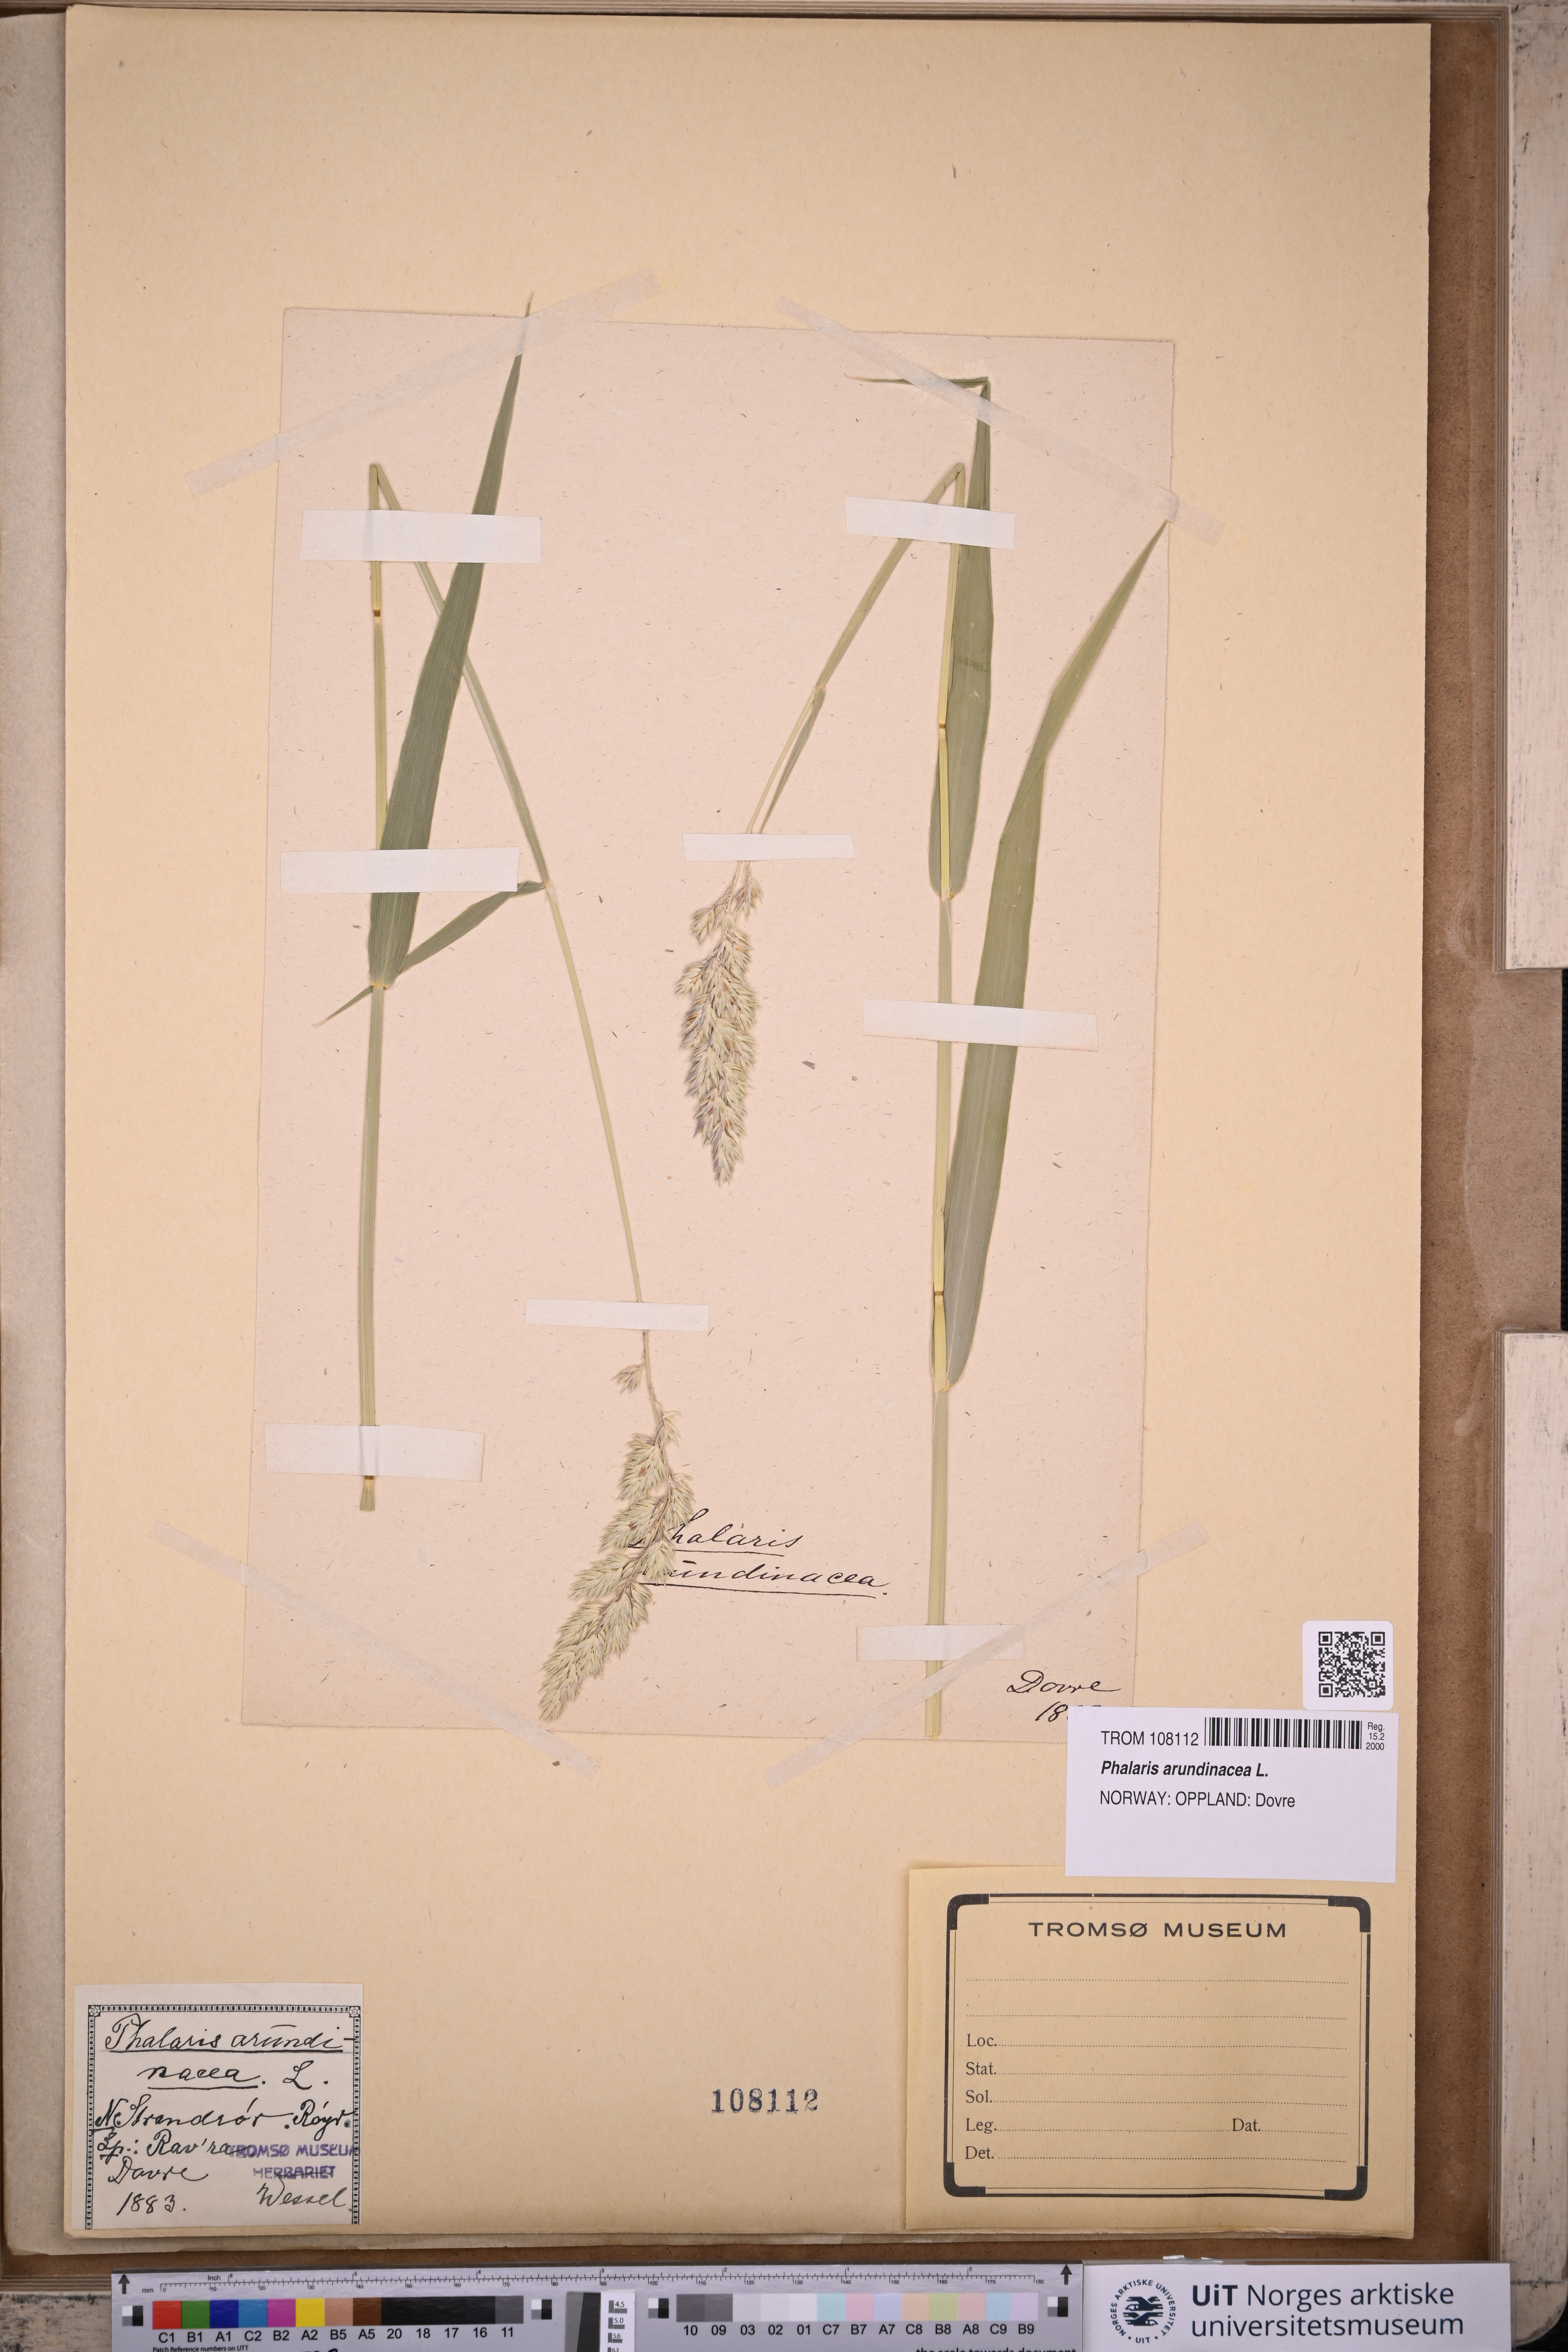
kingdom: Plantae
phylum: Tracheophyta
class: Liliopsida
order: Poales
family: Poaceae
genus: Phalaris
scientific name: Phalaris arundinacea
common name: Reed canary-grass
